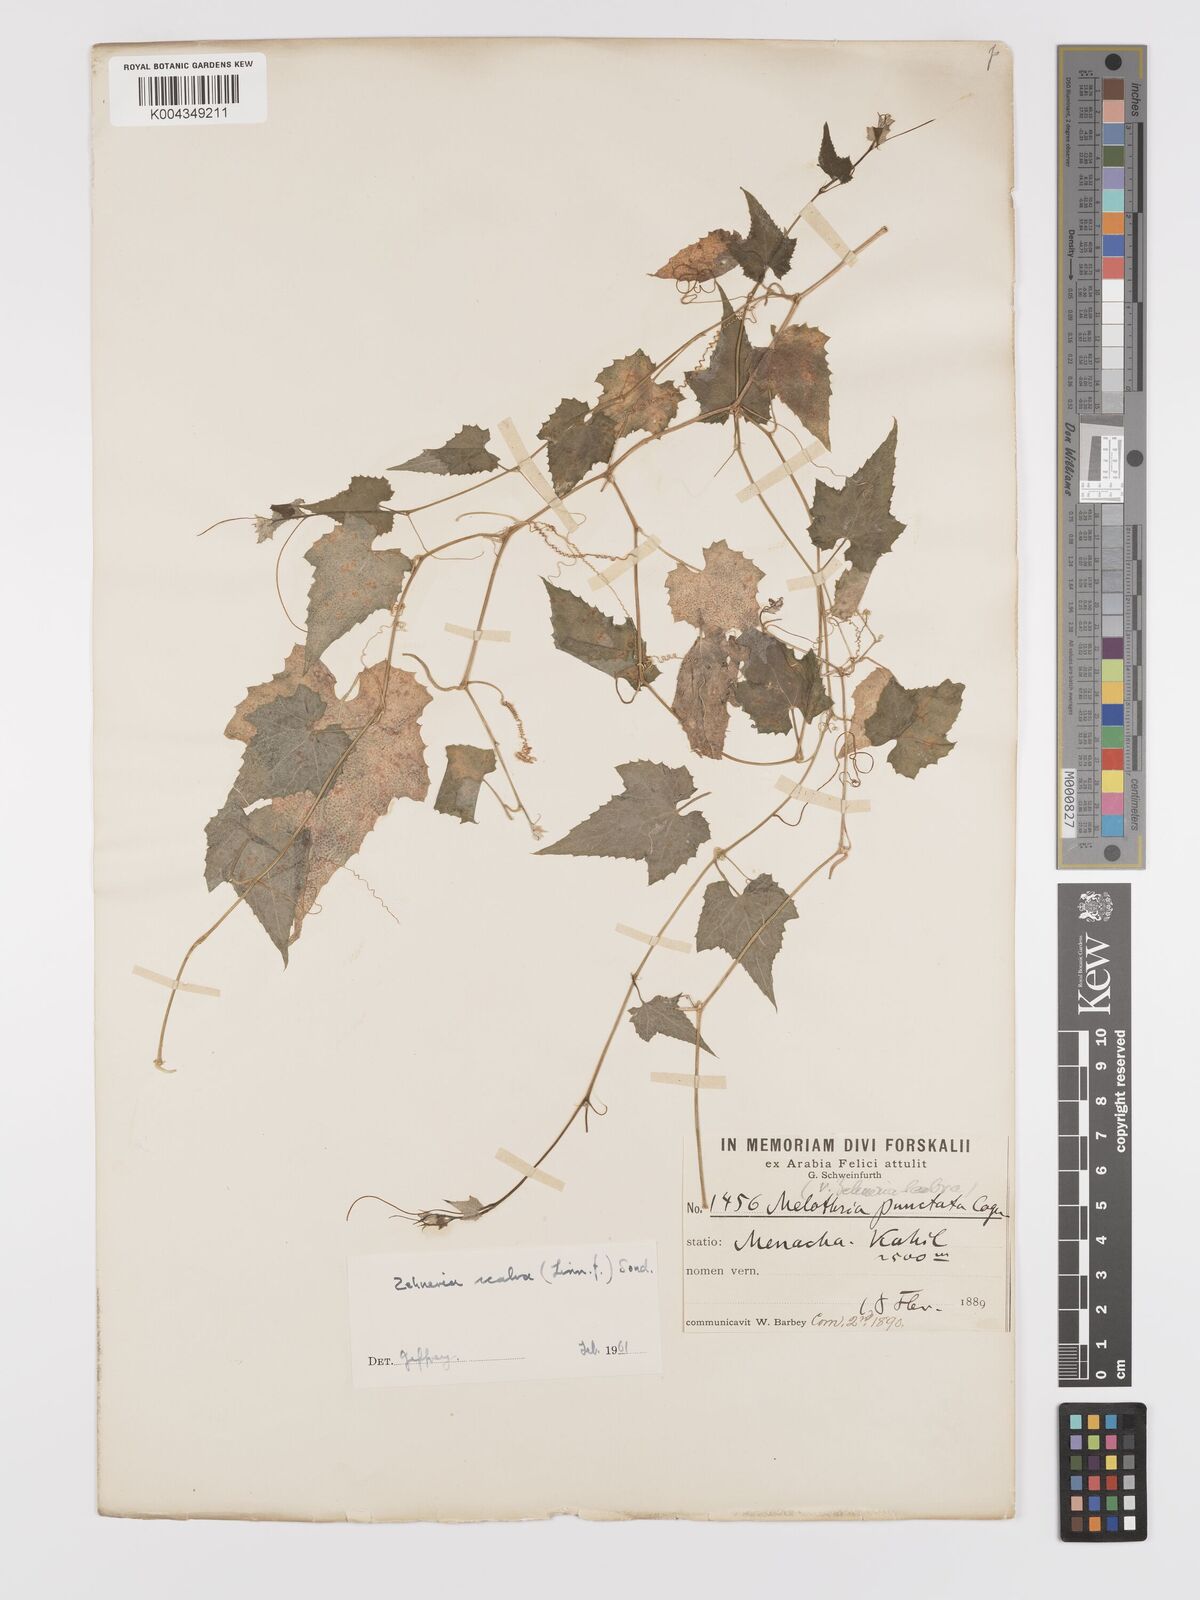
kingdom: Plantae
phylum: Tracheophyta
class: Magnoliopsida
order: Cucurbitales
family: Cucurbitaceae
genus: Zehneria
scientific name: Zehneria scabra
